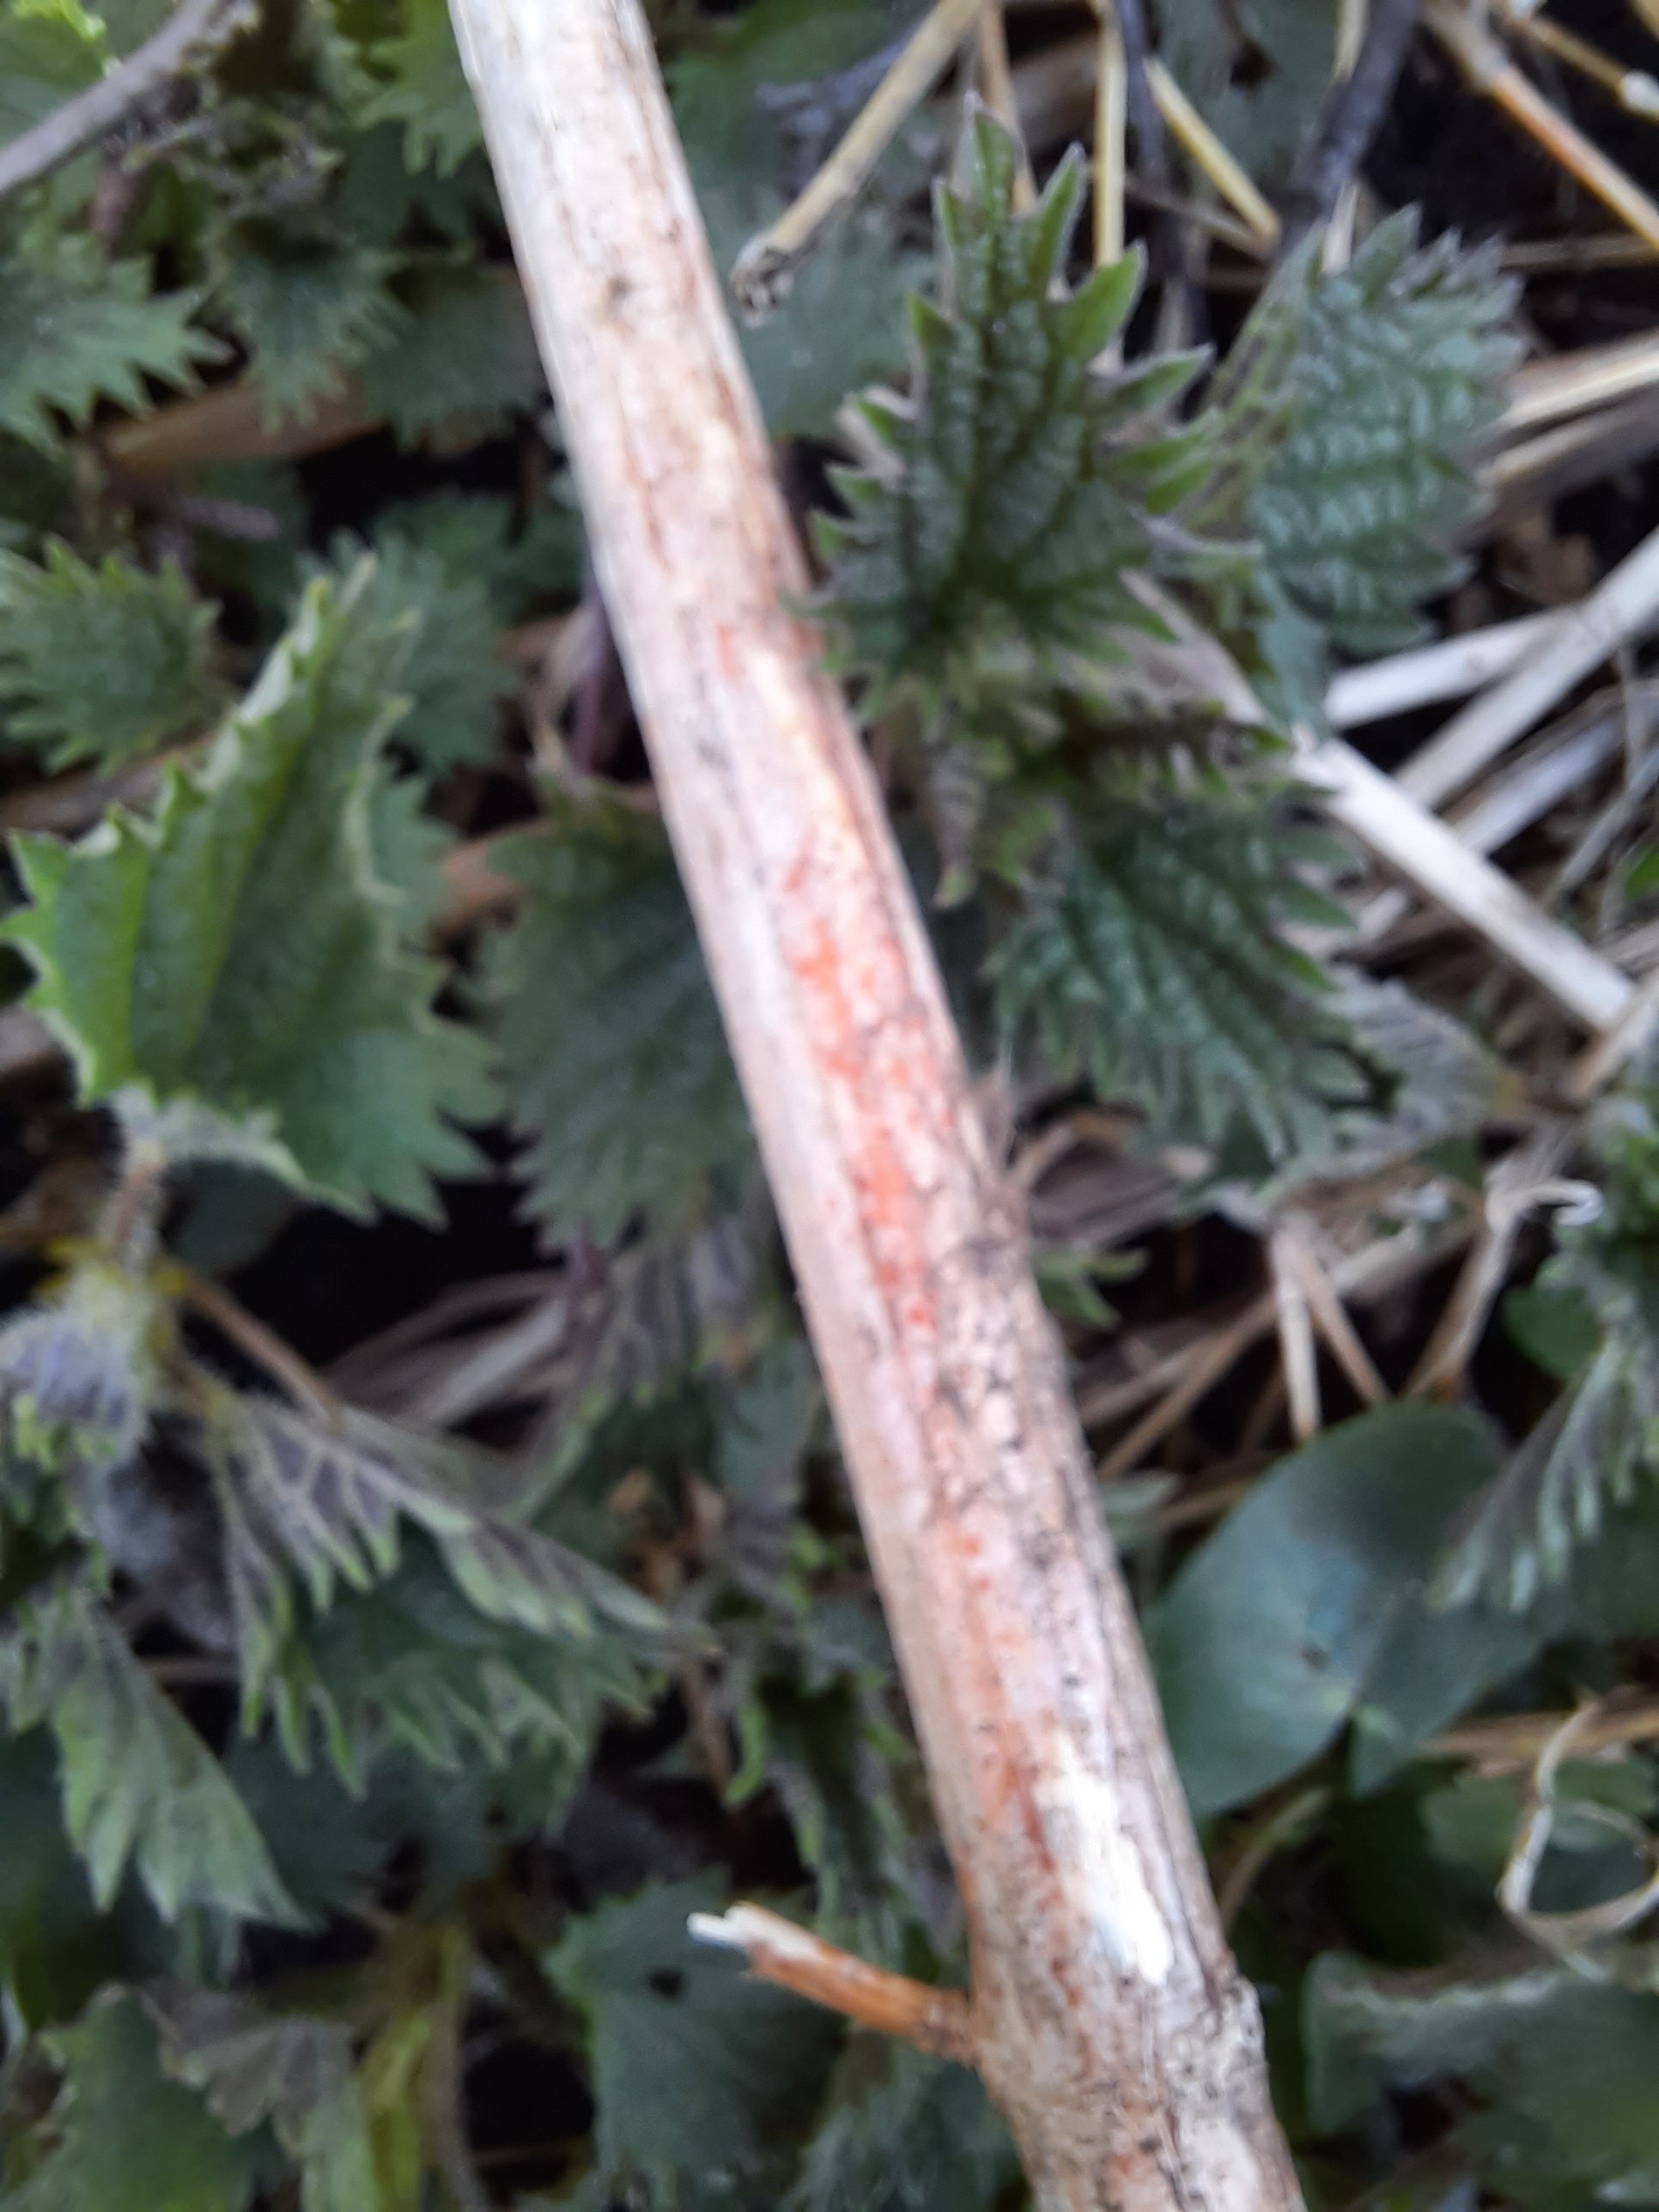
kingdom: Fungi
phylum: Ascomycota
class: Leotiomycetes
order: Helotiales
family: Calloriaceae
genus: Calloria
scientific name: Calloria urticae
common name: nælde-orangeskive
